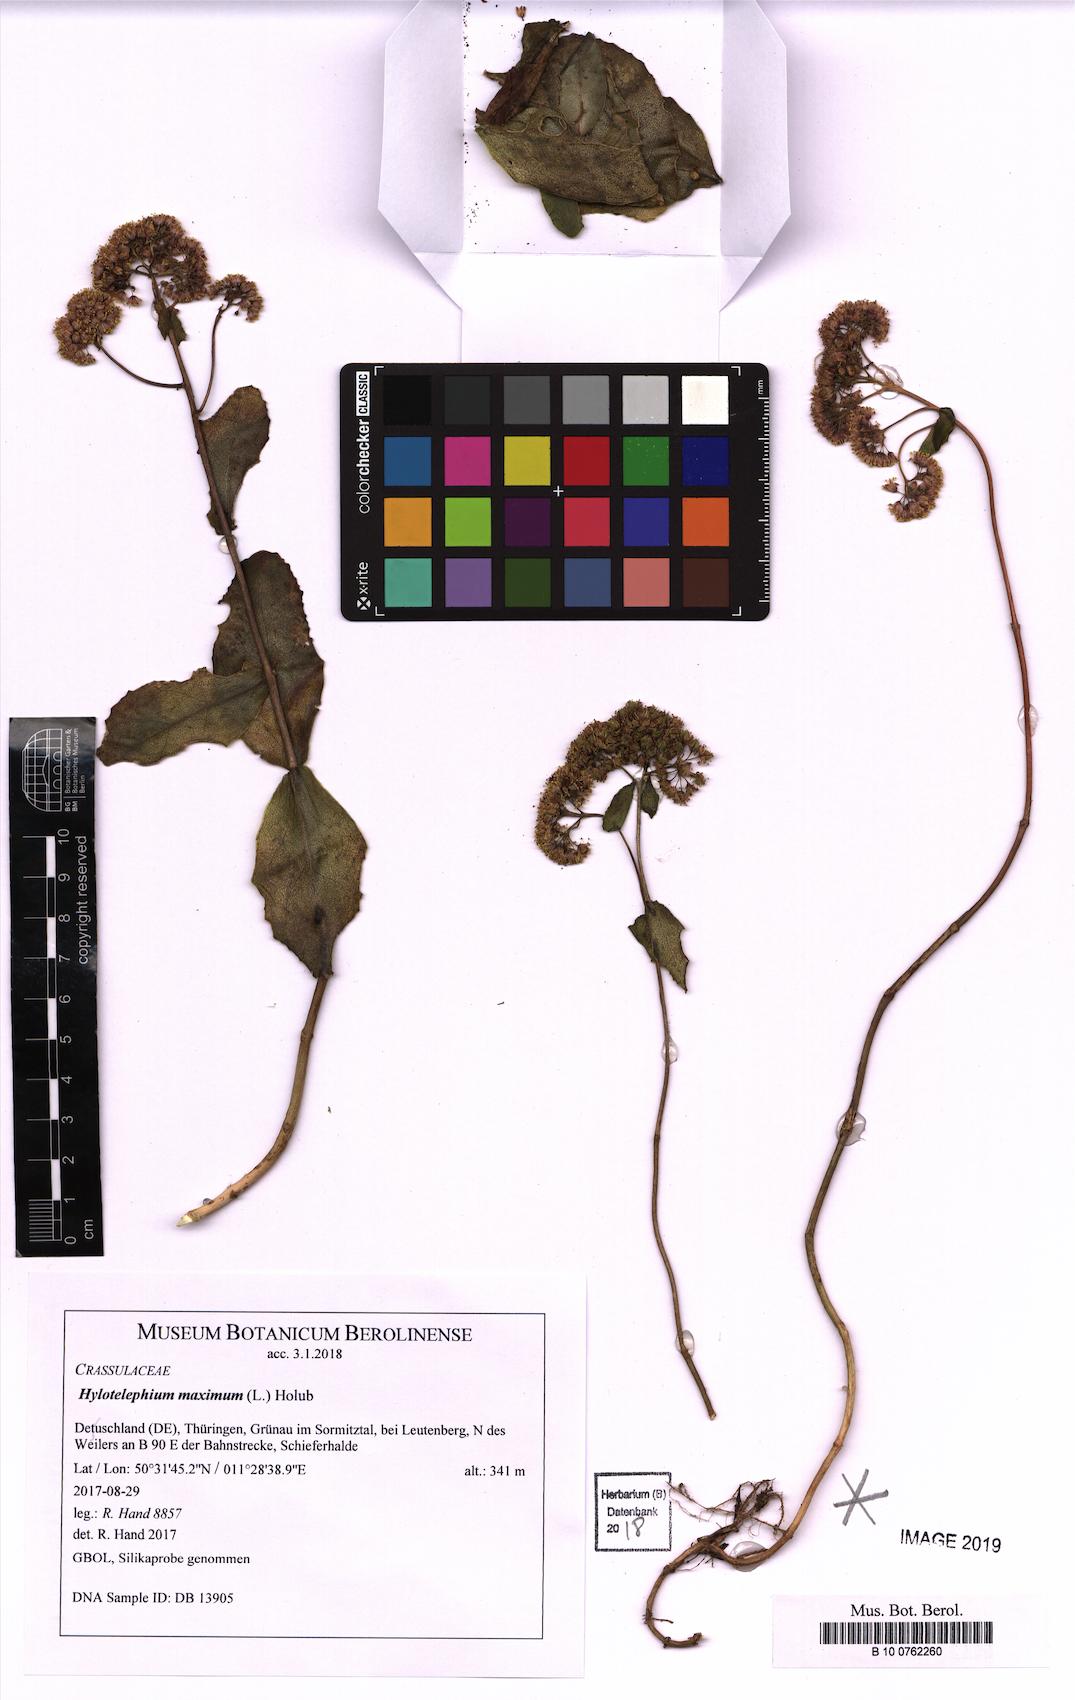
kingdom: Plantae
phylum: Tracheophyta
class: Magnoliopsida
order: Saxifragales
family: Crassulaceae
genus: Hylotelephium
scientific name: Hylotelephium maximum
